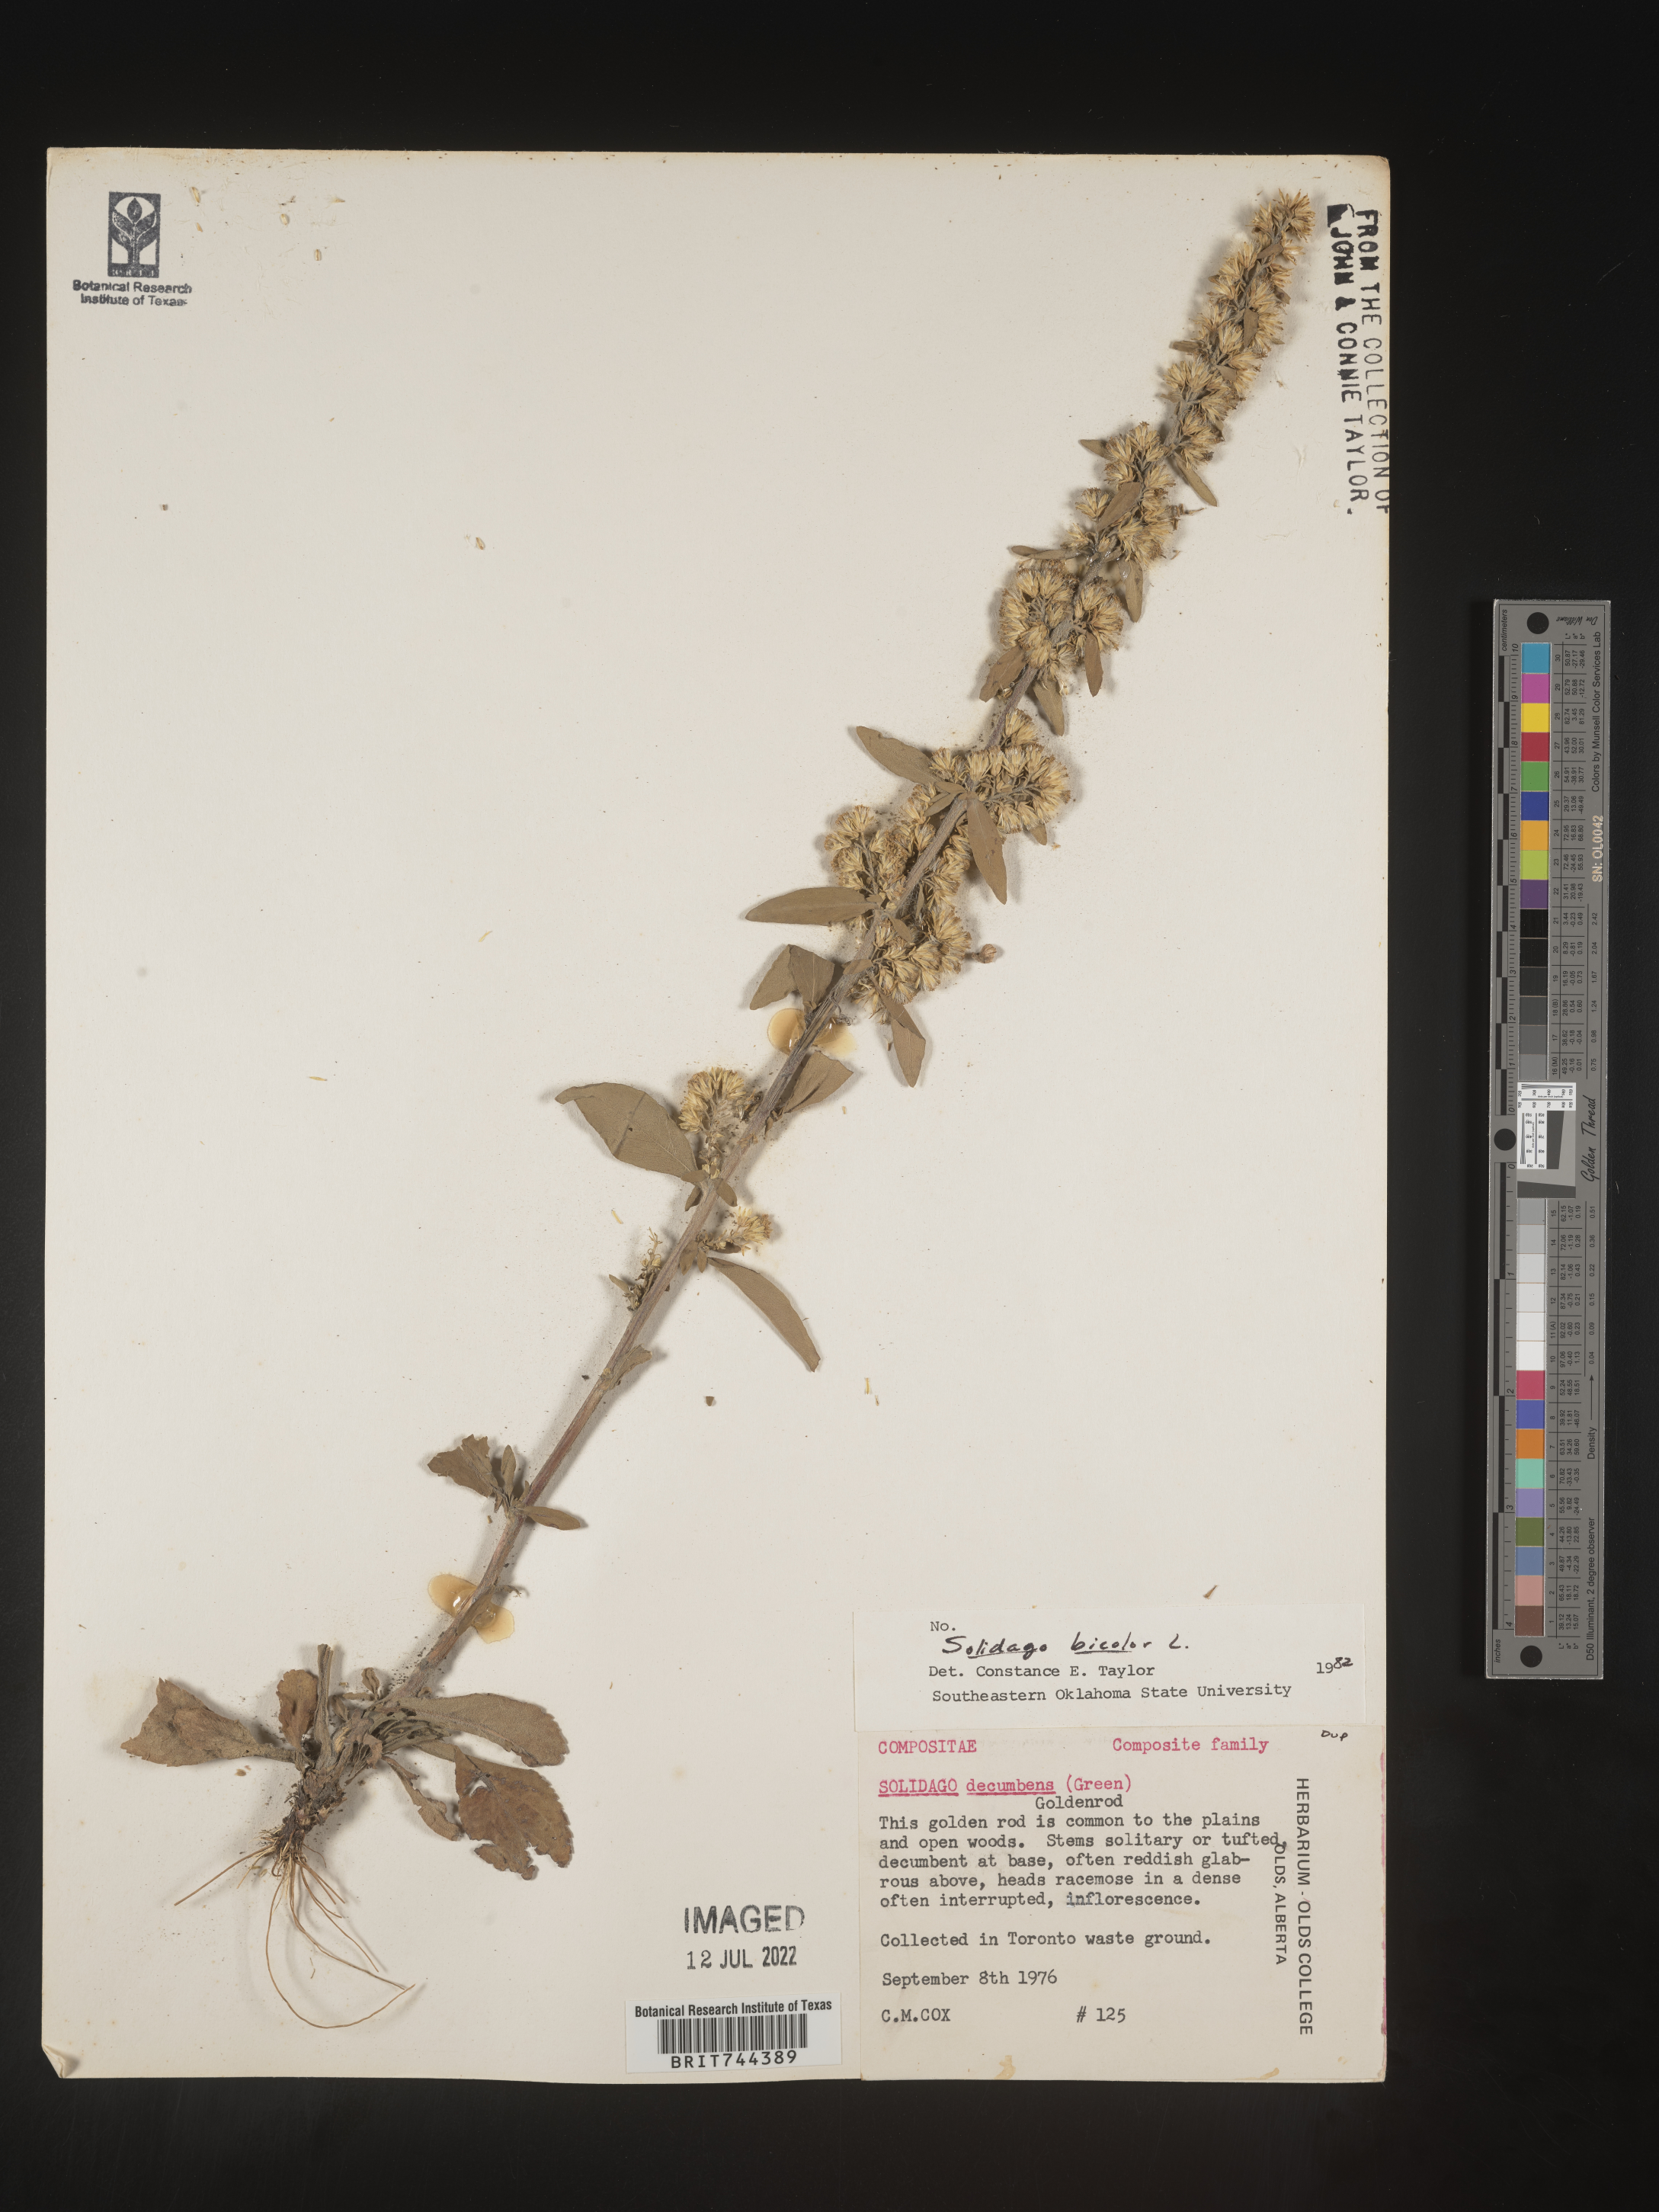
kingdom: Plantae
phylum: Tracheophyta
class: Magnoliopsida
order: Asterales
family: Asteraceae
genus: Solidago
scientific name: Solidago bicolor
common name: Silverrod
